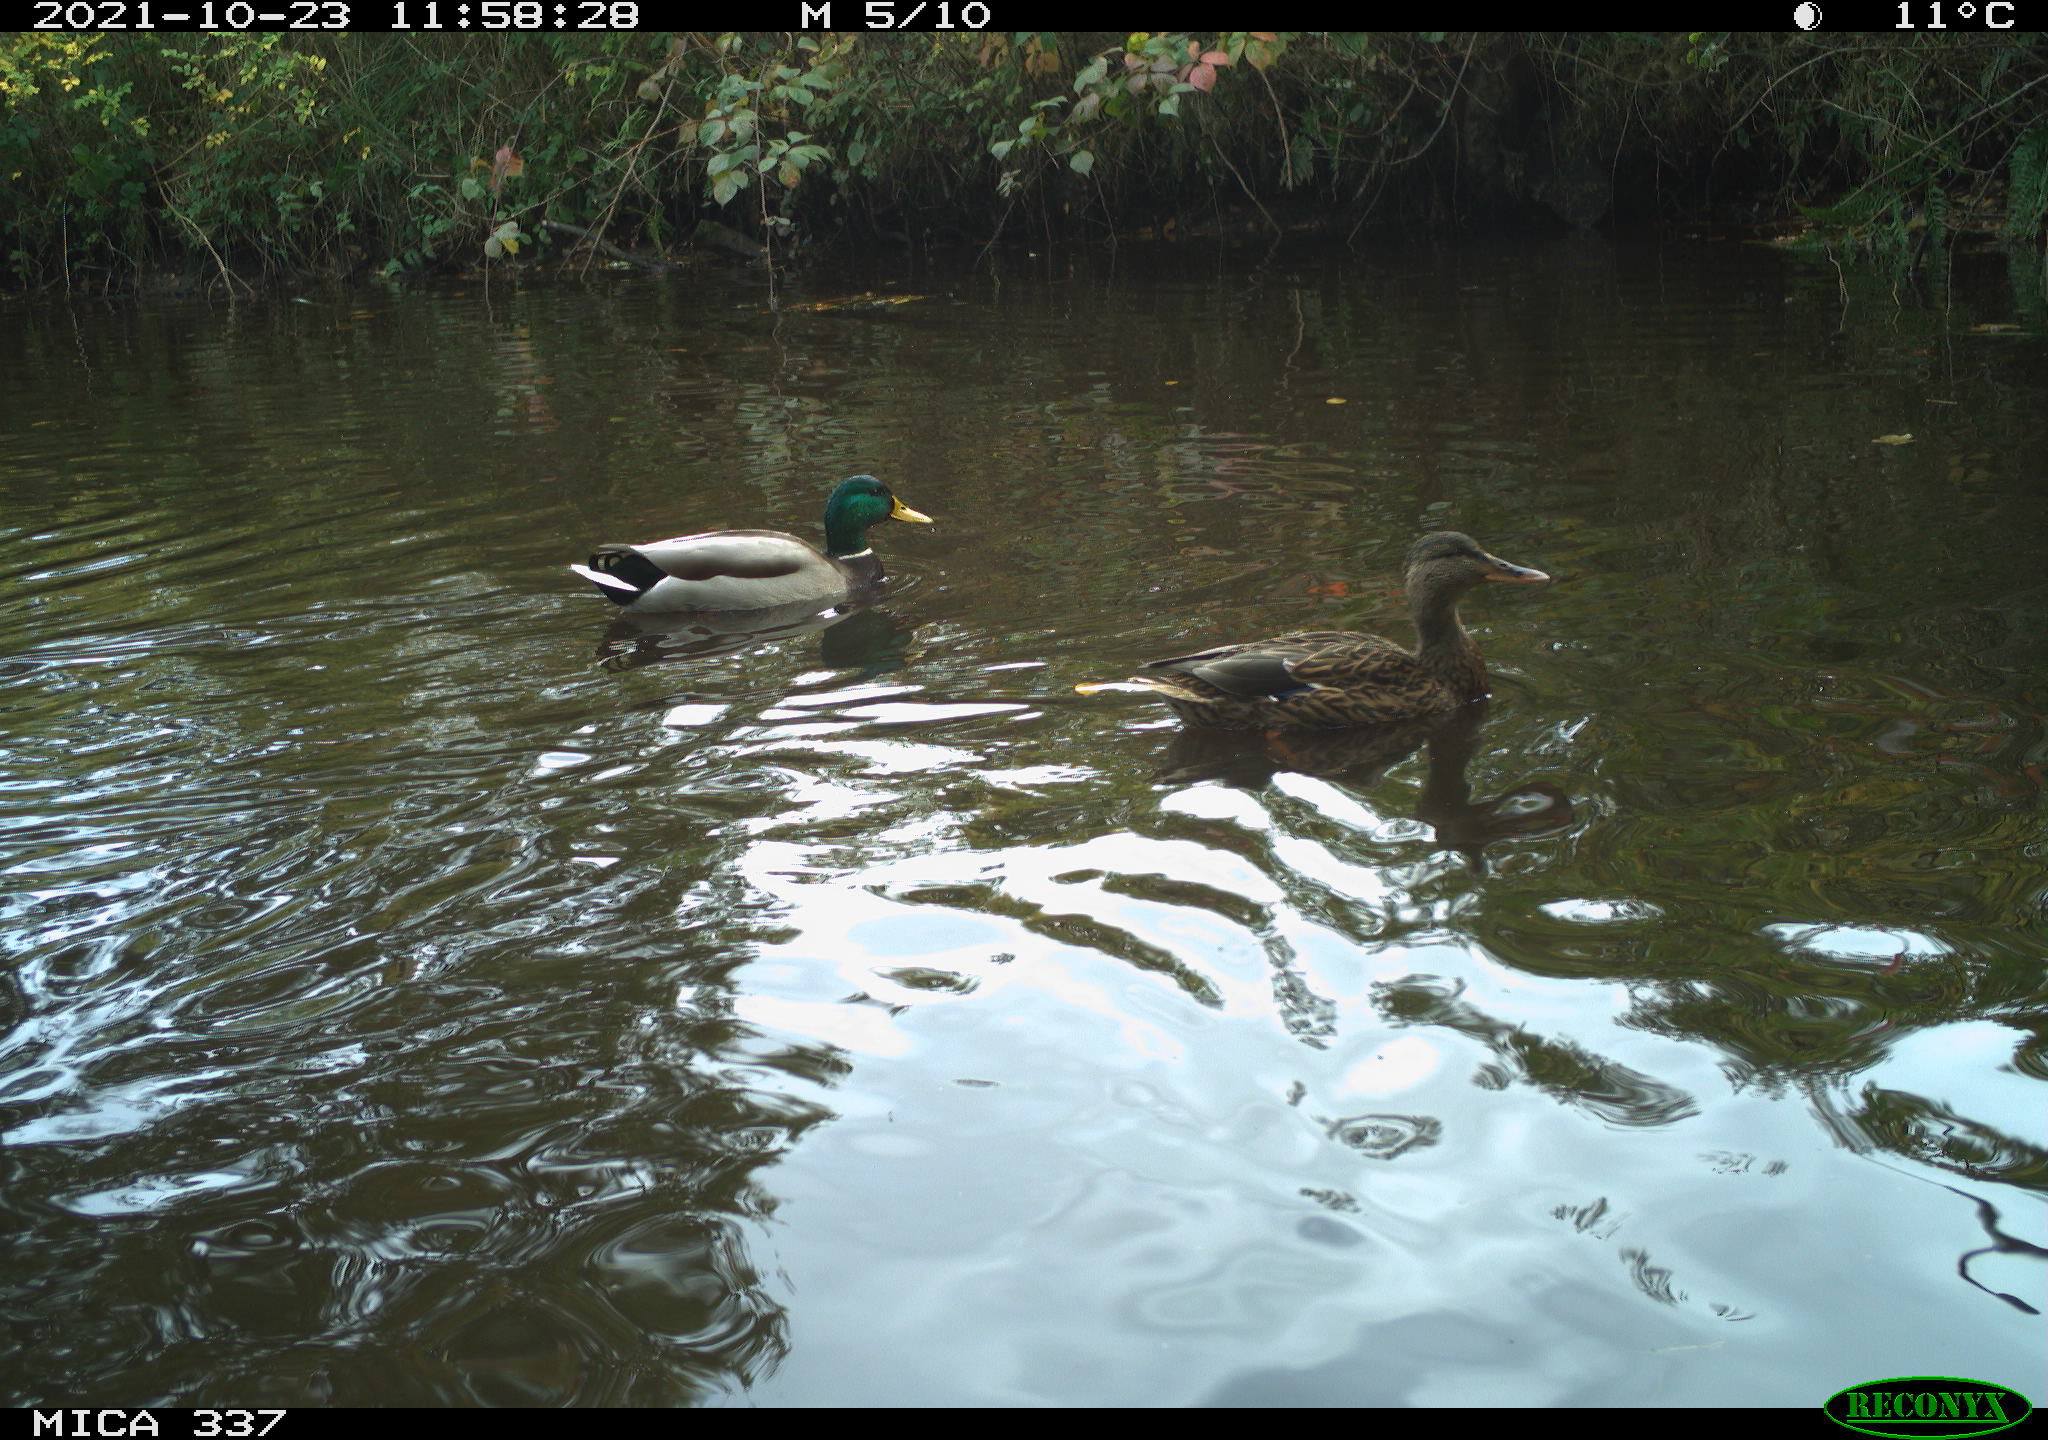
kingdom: Animalia
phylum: Chordata
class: Aves
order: Anseriformes
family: Anatidae
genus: Anas
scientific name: Anas platyrhynchos
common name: Mallard
